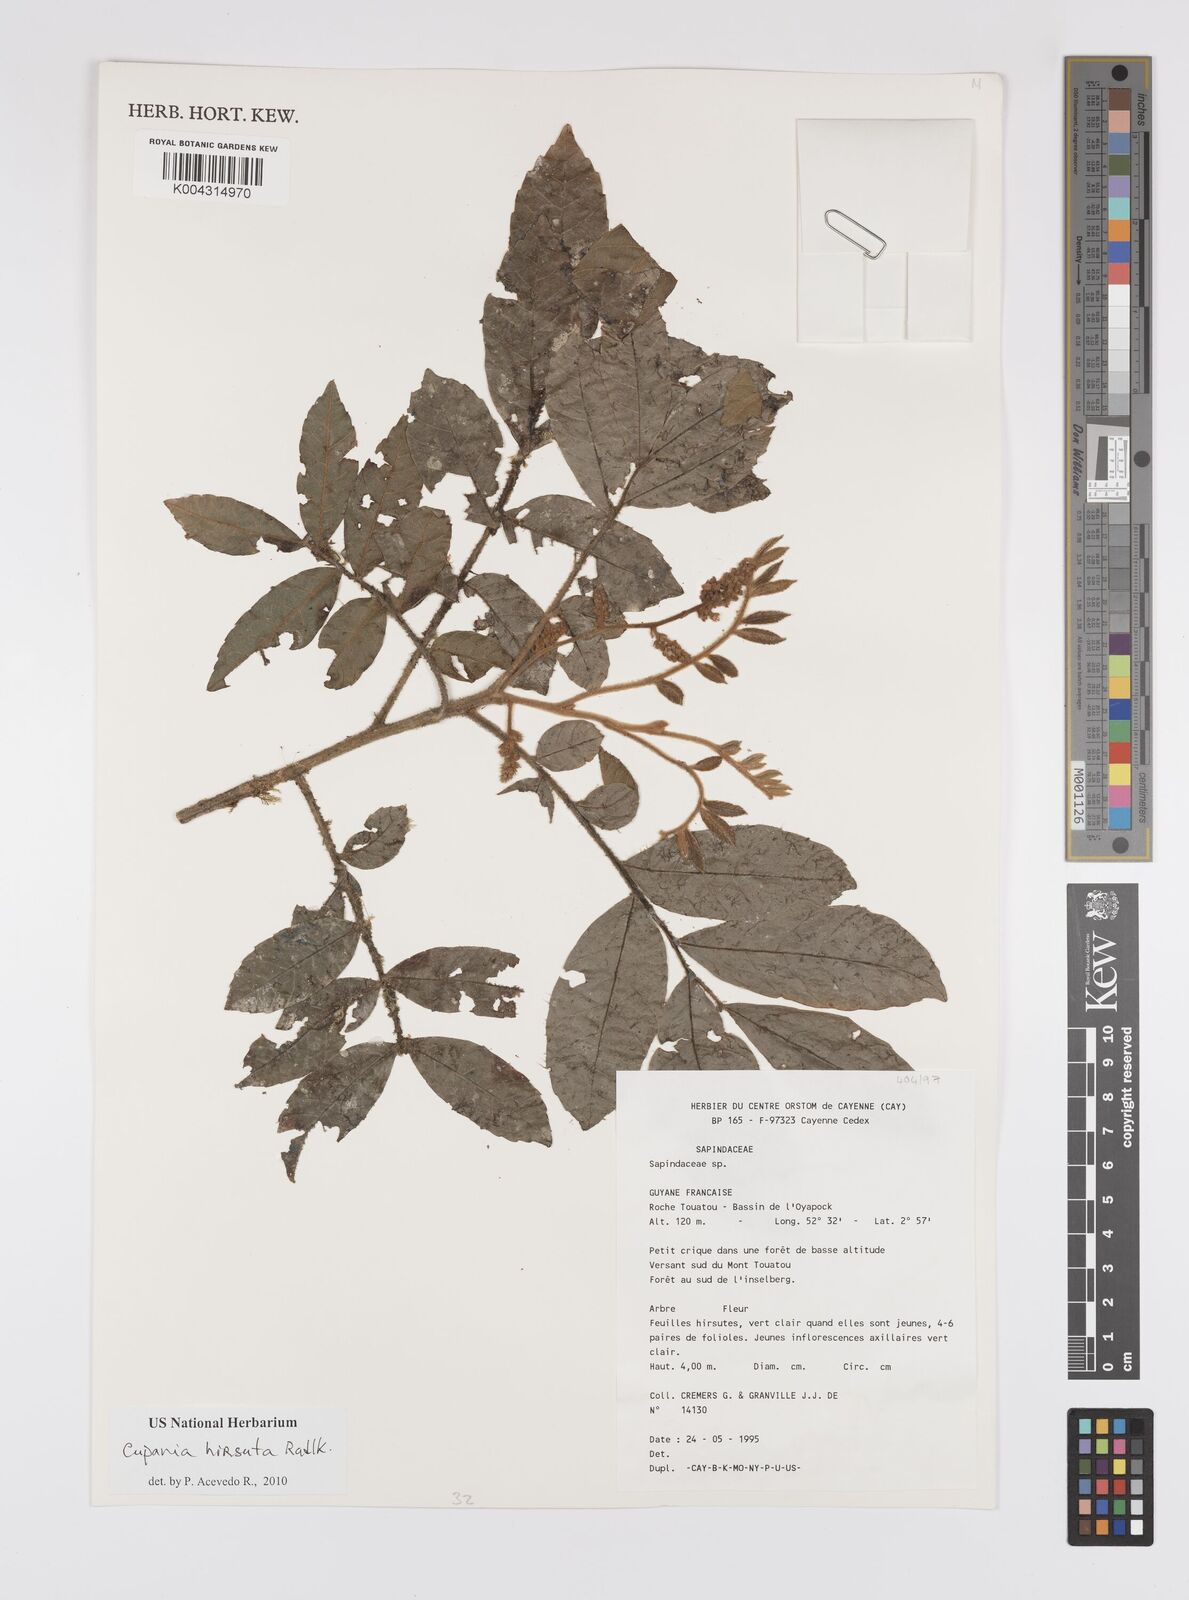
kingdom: Plantae
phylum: Tracheophyta
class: Magnoliopsida
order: Sapindales
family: Sapindaceae
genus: Cupania
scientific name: Cupania hirsuta
